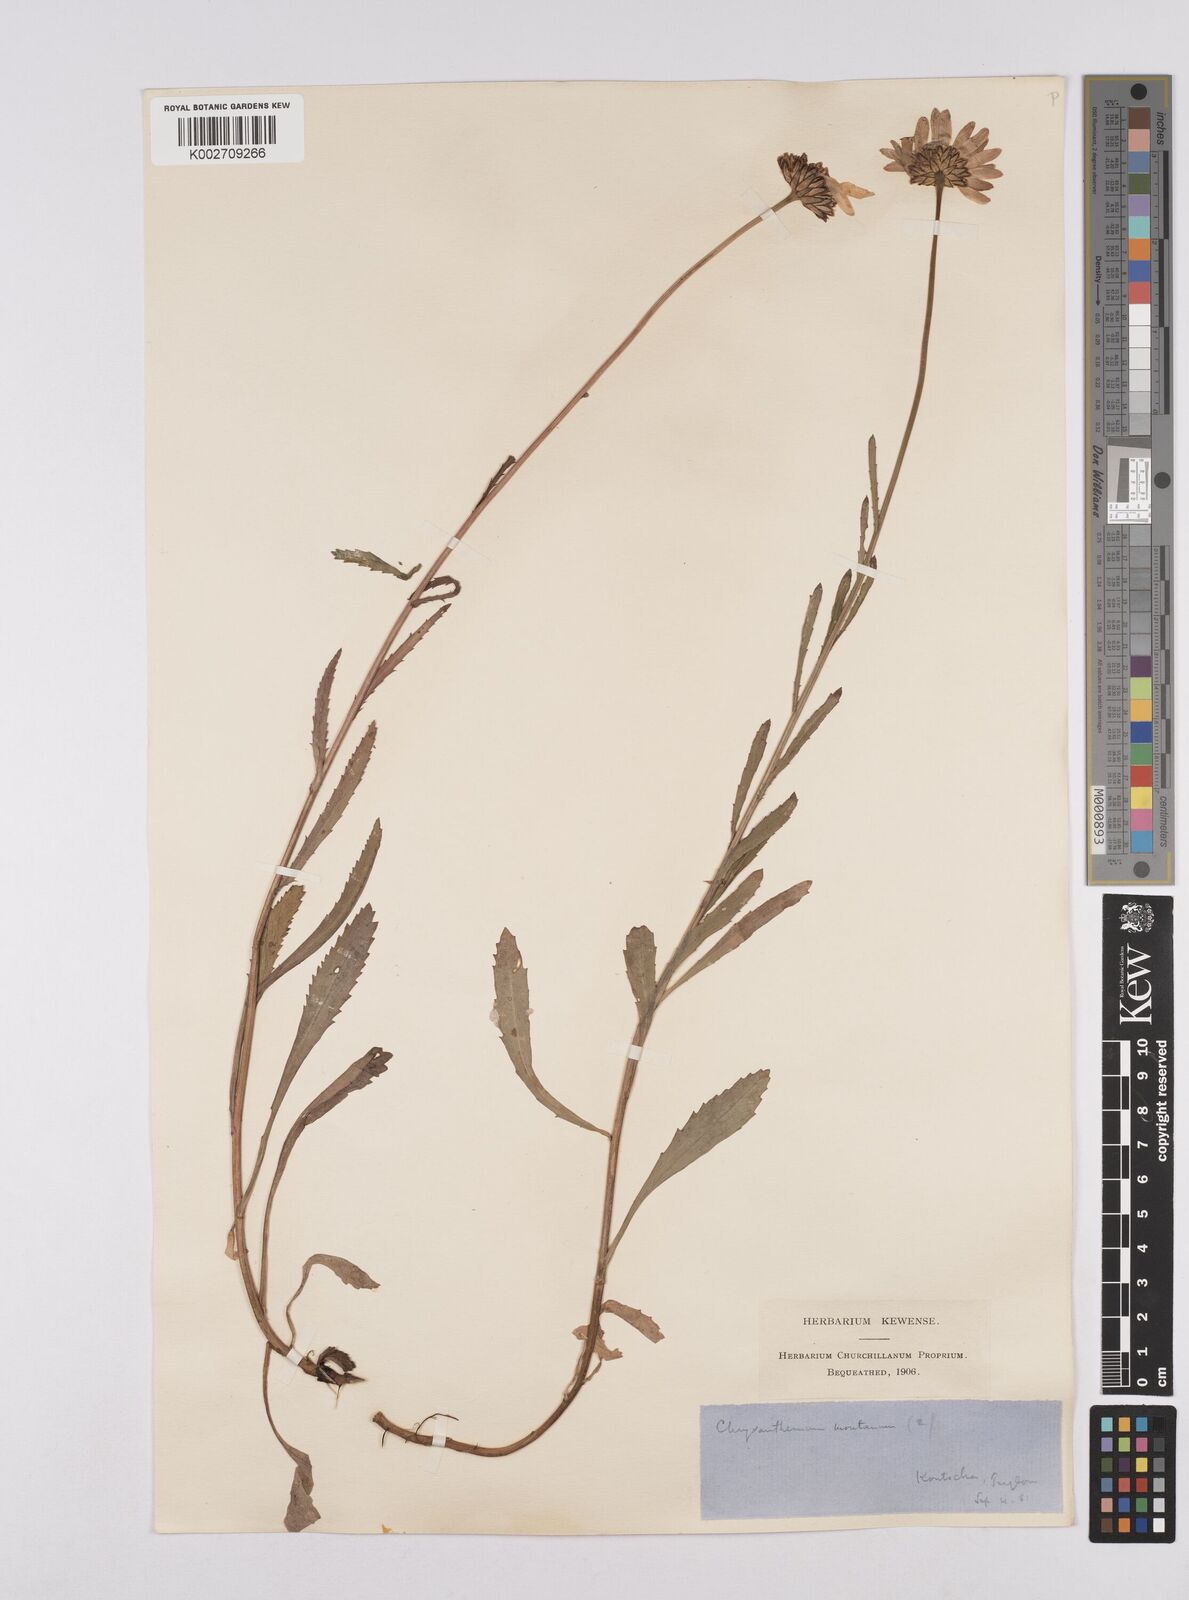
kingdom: Plantae
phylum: Tracheophyta
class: Magnoliopsida
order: Asterales
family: Asteraceae
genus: Leucanthemum
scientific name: Leucanthemum chloroticum
